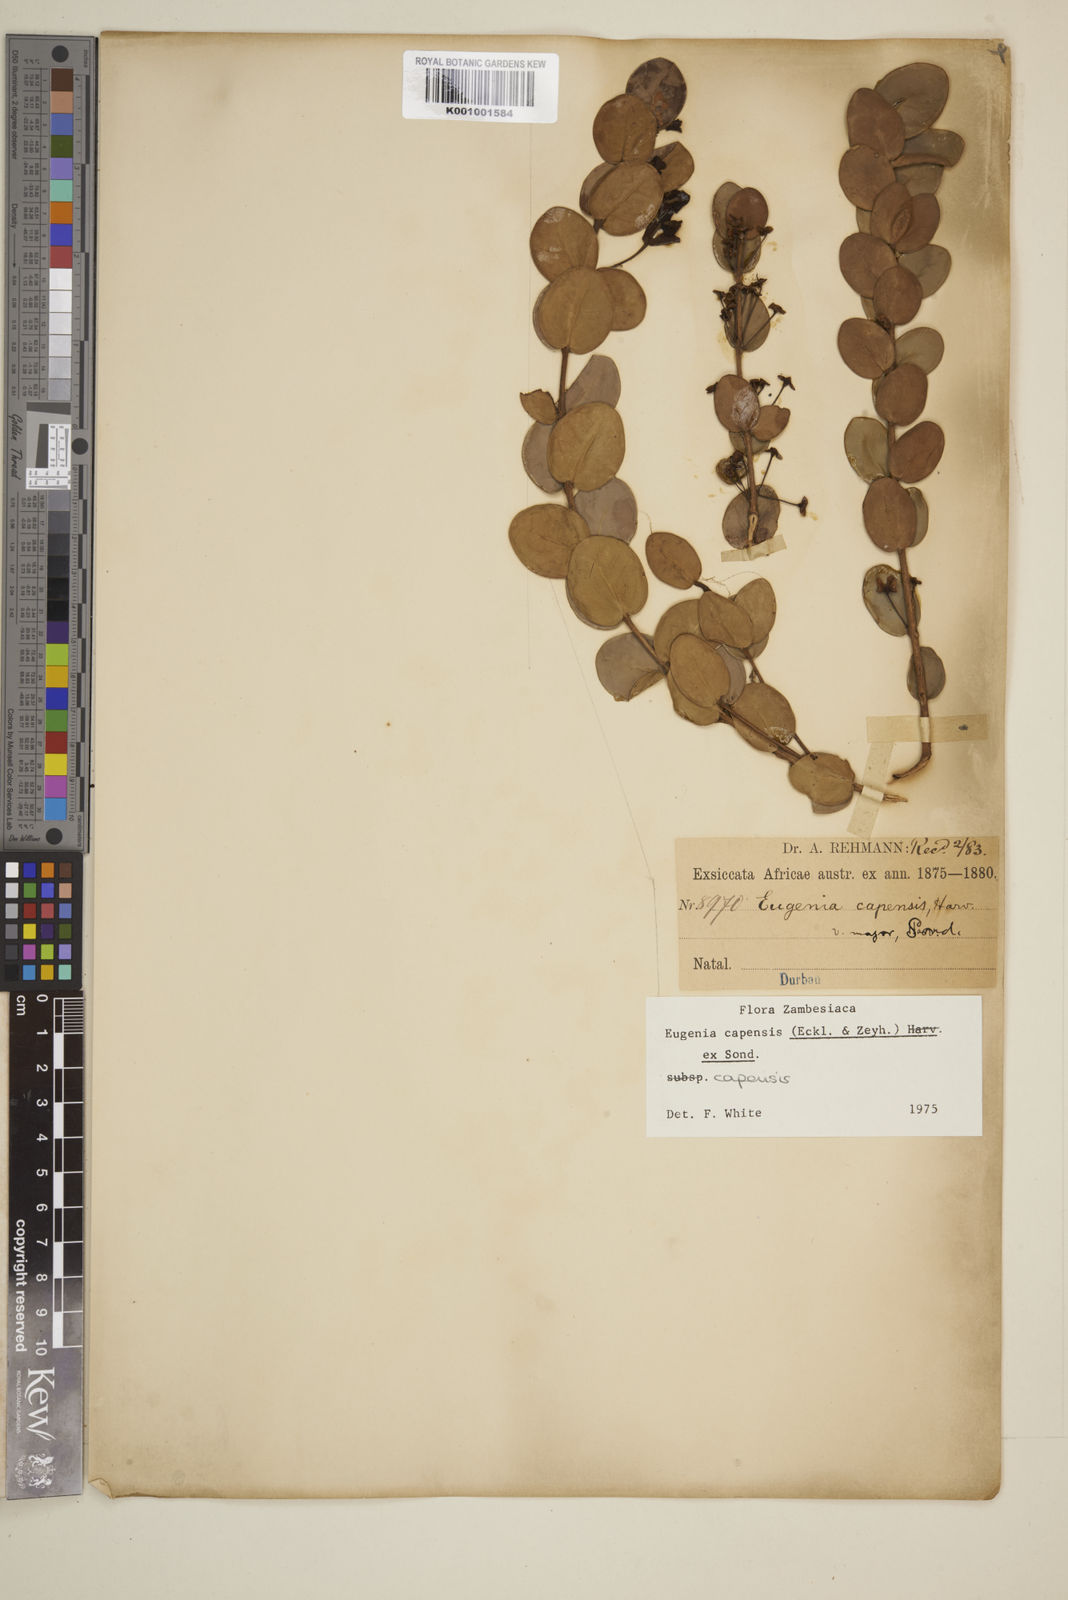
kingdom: Plantae
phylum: Tracheophyta
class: Magnoliopsida
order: Myrtales
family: Myrtaceae
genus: Eugenia
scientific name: Eugenia capensis
